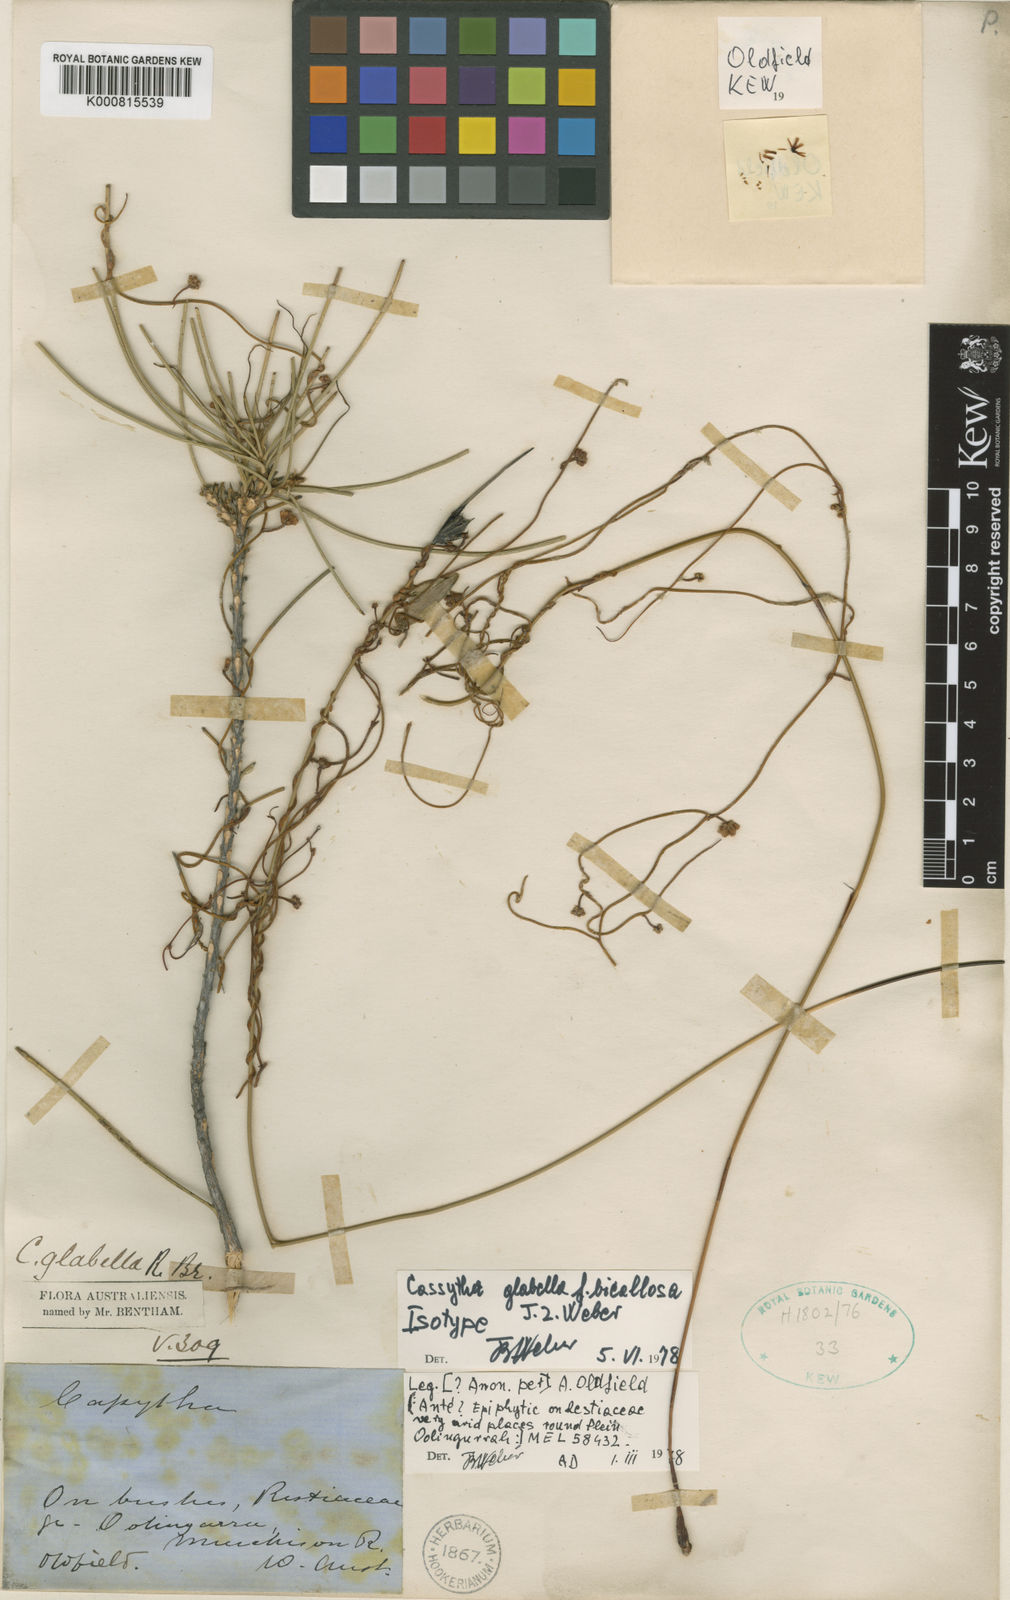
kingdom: Plantae
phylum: Tracheophyta
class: Magnoliopsida
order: Laurales
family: Lauraceae
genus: Cassytha
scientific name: Cassytha glabella
